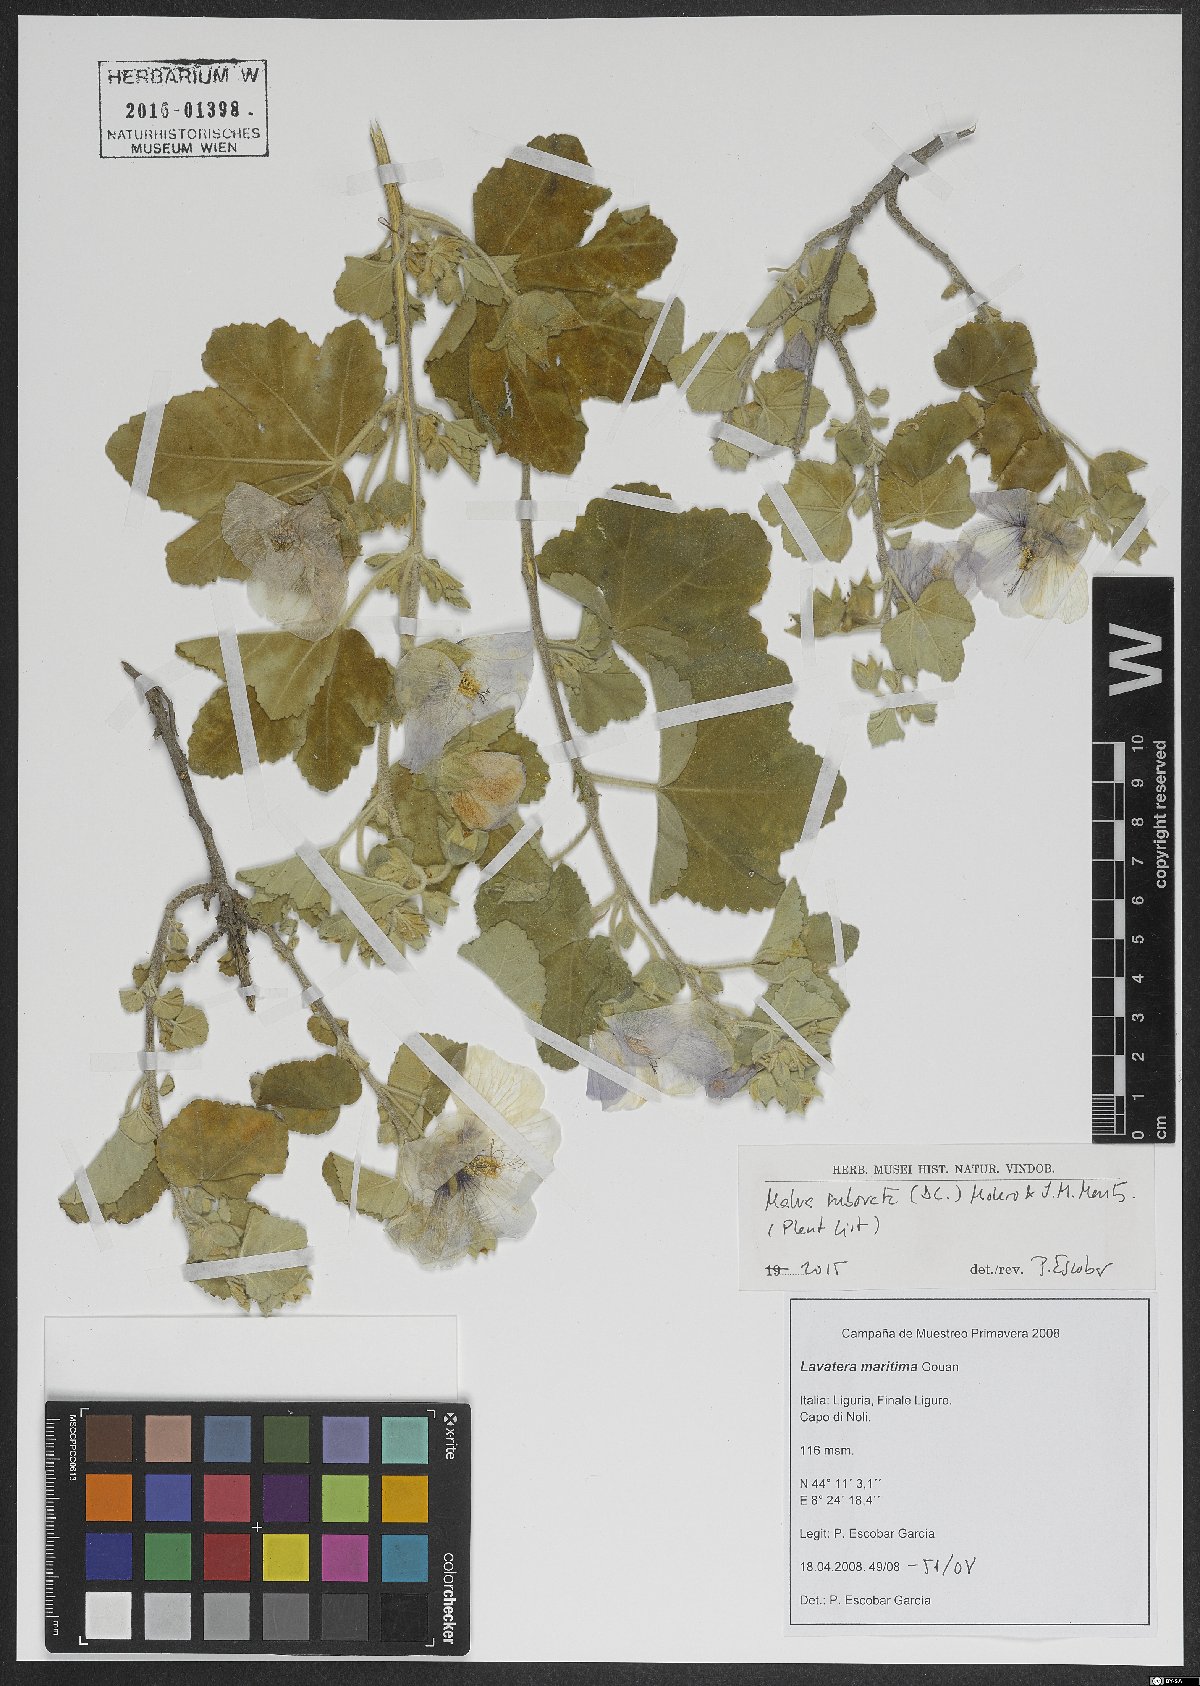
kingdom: Plantae
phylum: Tracheophyta
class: Magnoliopsida
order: Malvales
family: Malvaceae
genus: Malva
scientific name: Malva subovata
